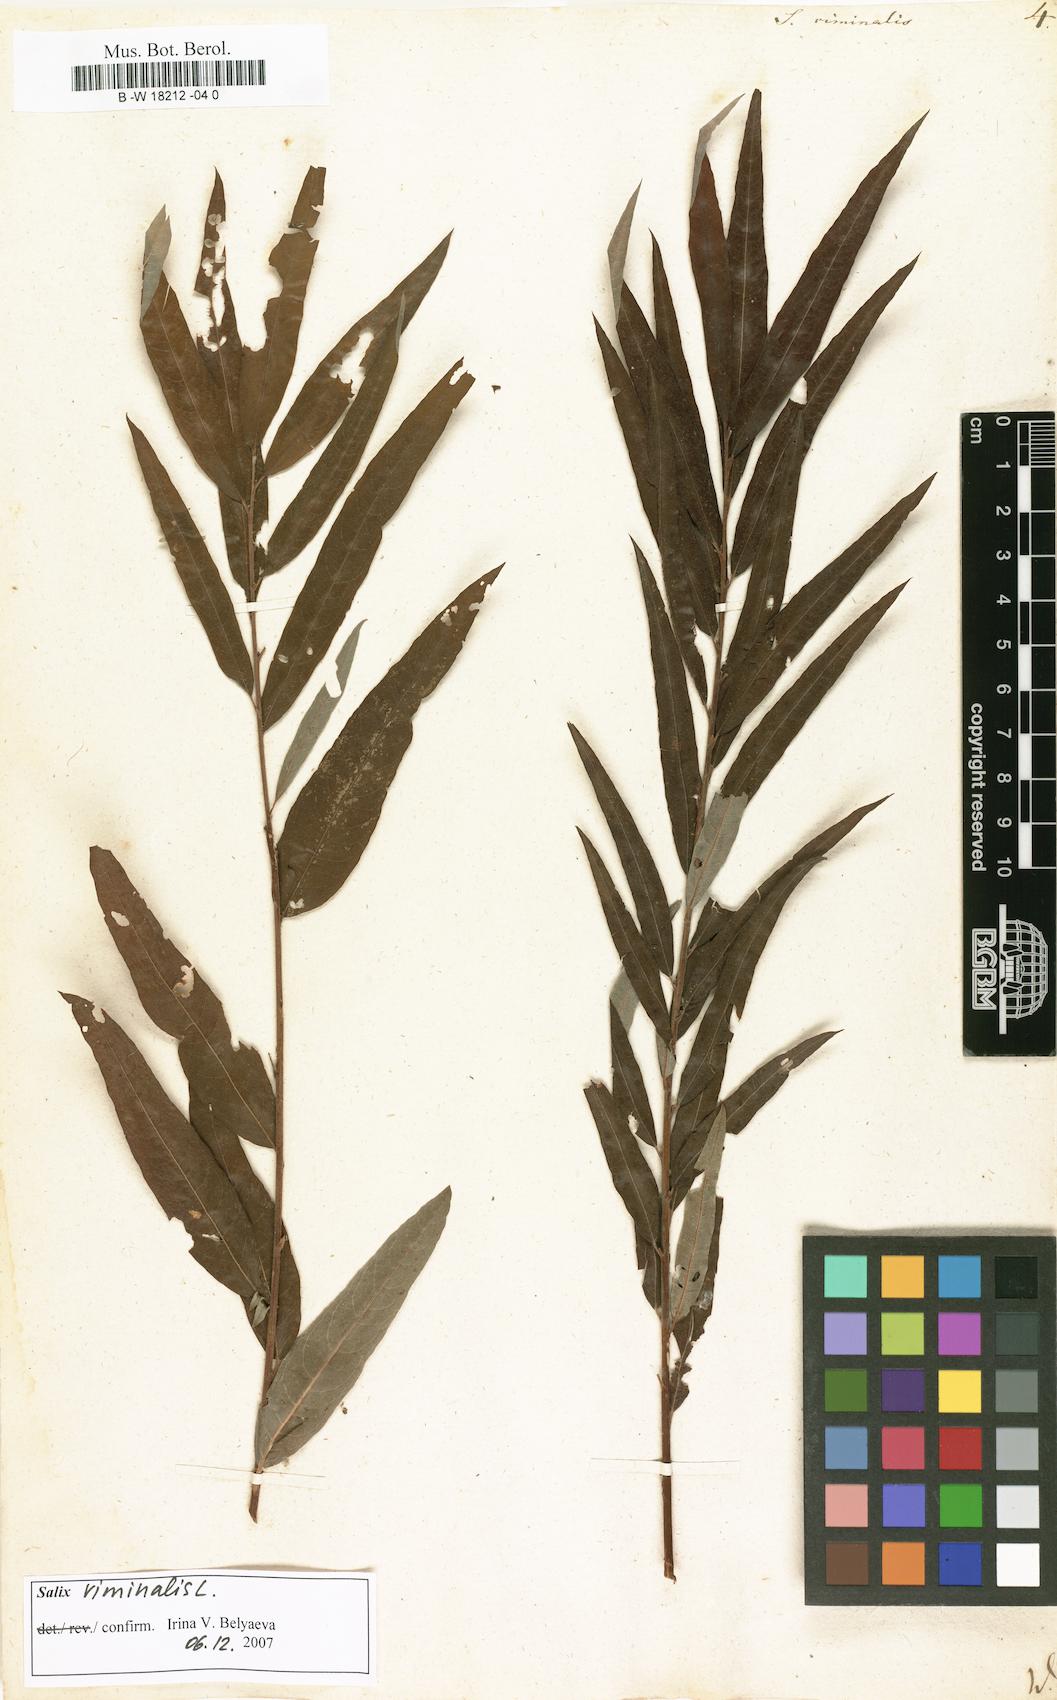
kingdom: Plantae
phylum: Tracheophyta
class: Magnoliopsida
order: Malpighiales
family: Salicaceae
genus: Salix
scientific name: Salix viminalis
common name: Osier
